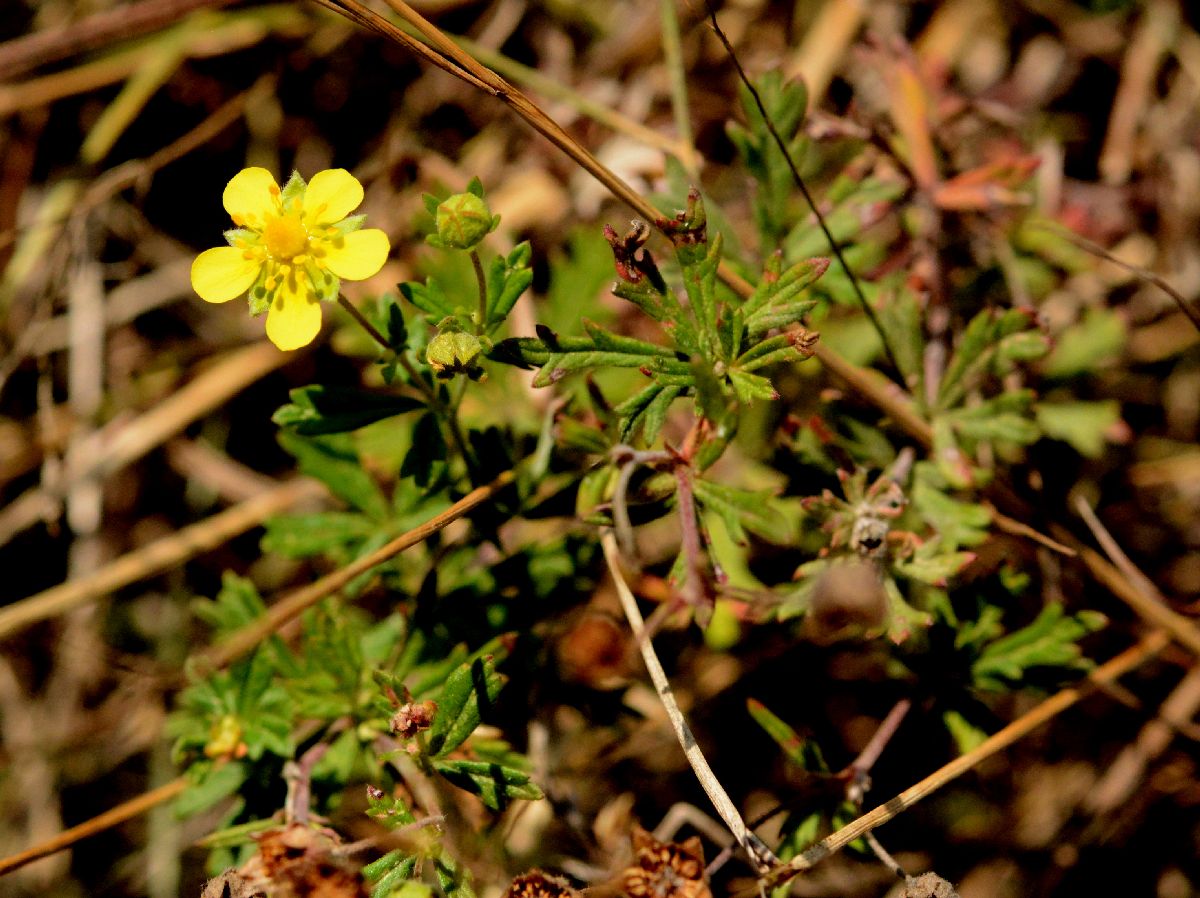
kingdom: Plantae
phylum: Tracheophyta
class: Magnoliopsida
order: Rosales
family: Rosaceae
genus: Potentilla
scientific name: Potentilla argentea
